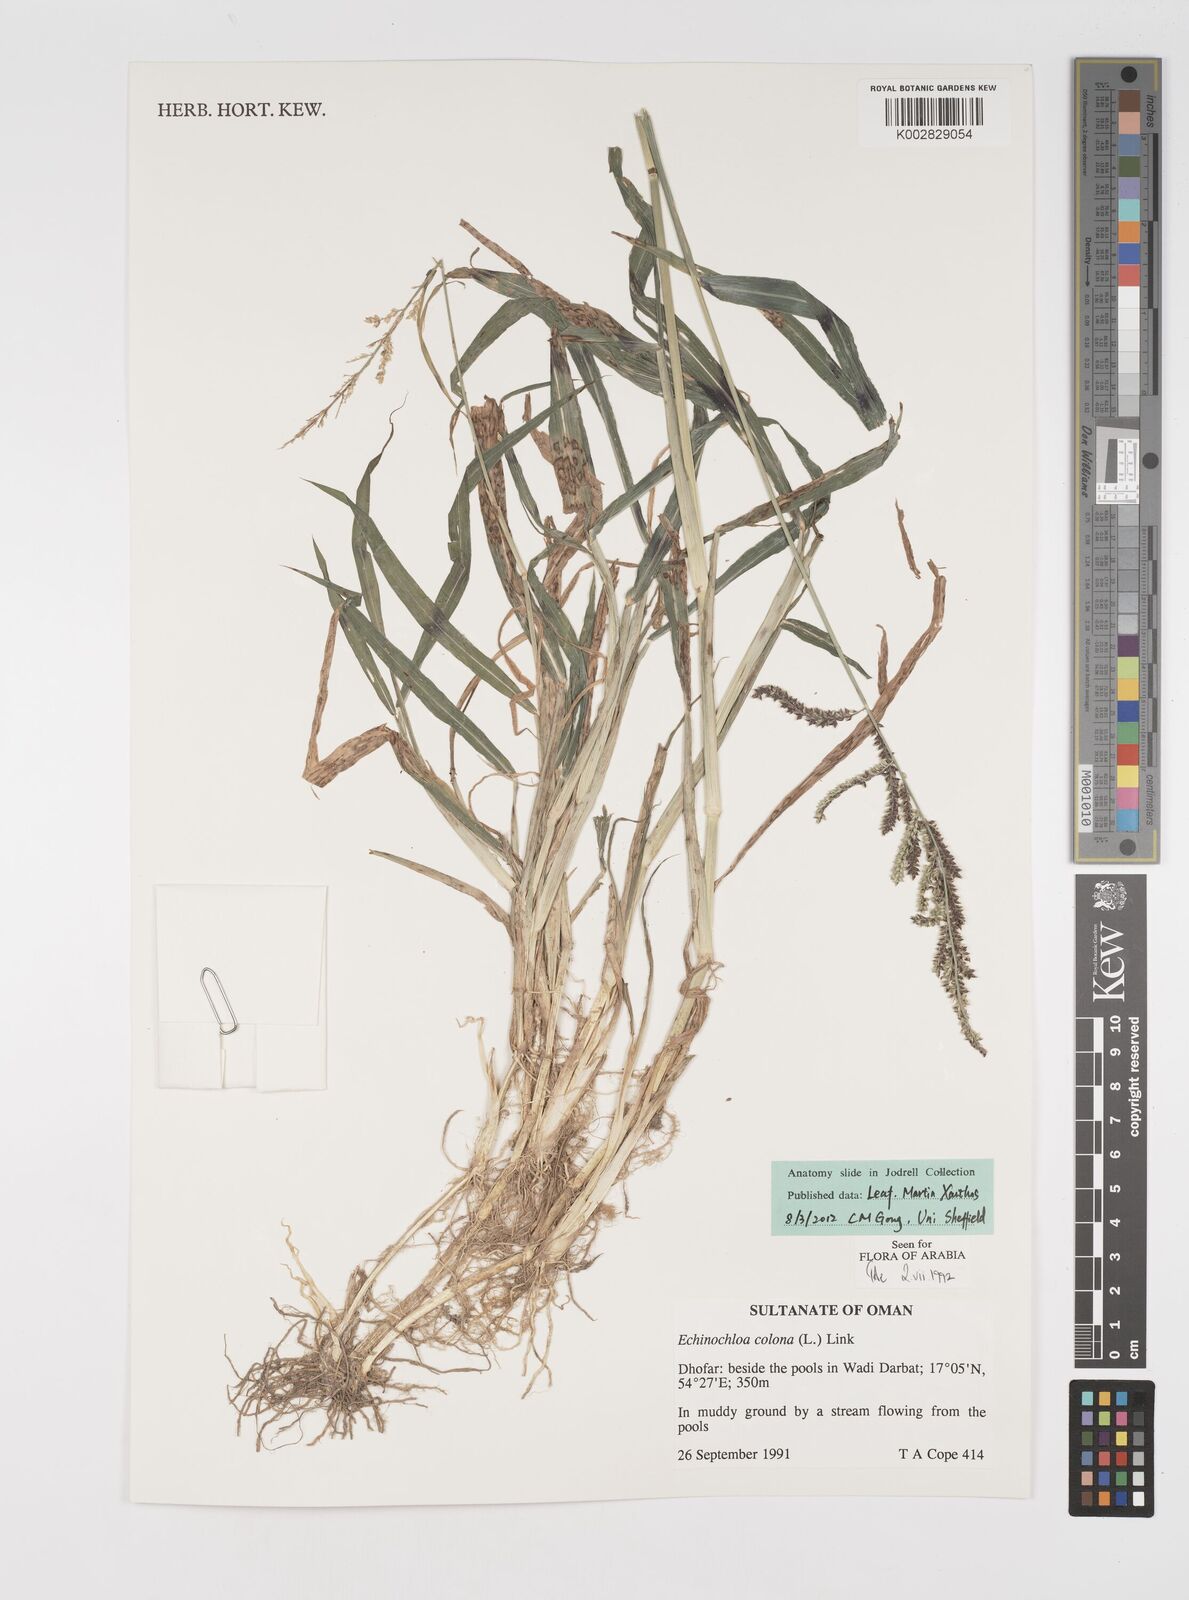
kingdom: Plantae
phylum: Tracheophyta
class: Liliopsida
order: Poales
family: Poaceae
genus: Echinochloa
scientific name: Echinochloa colonum
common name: Jungle rice
